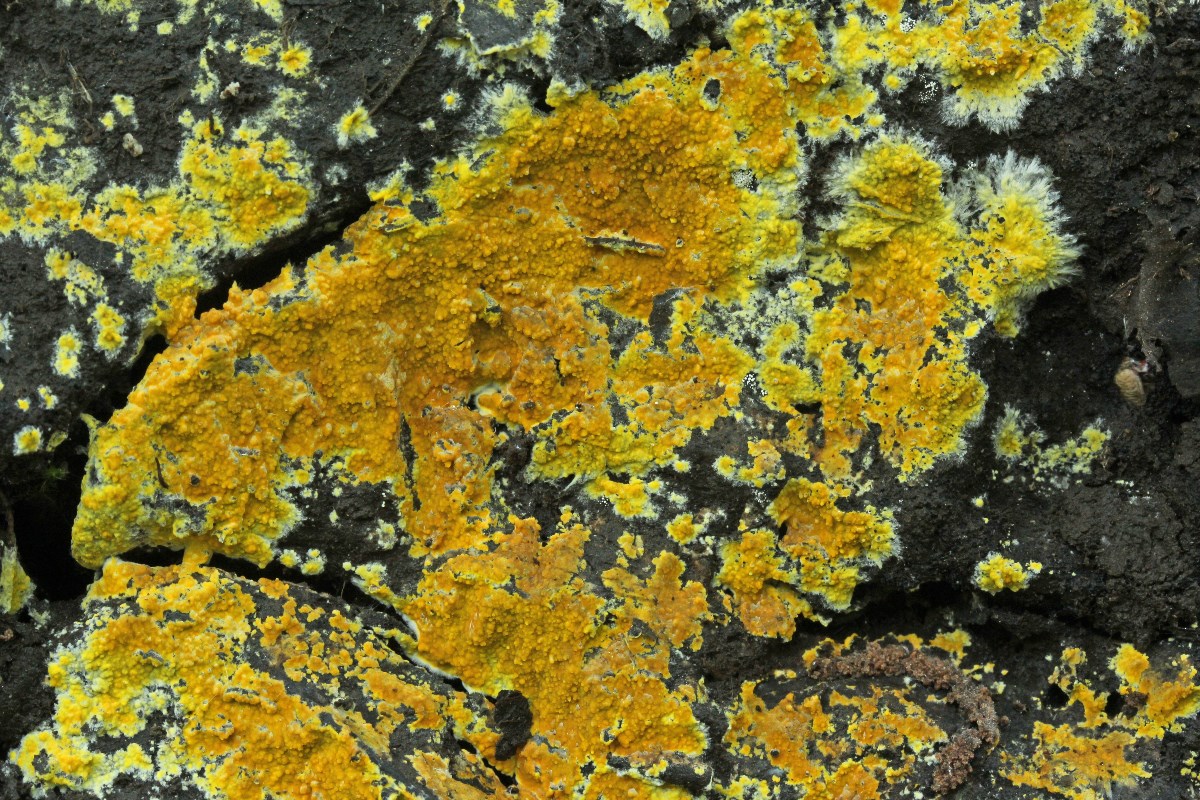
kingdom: Fungi
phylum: Basidiomycota
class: Agaricomycetes
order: Polyporales
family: Meruliaceae
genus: Phlebiodontia
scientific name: Phlebiodontia subochracea
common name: svovl-åresvamp
